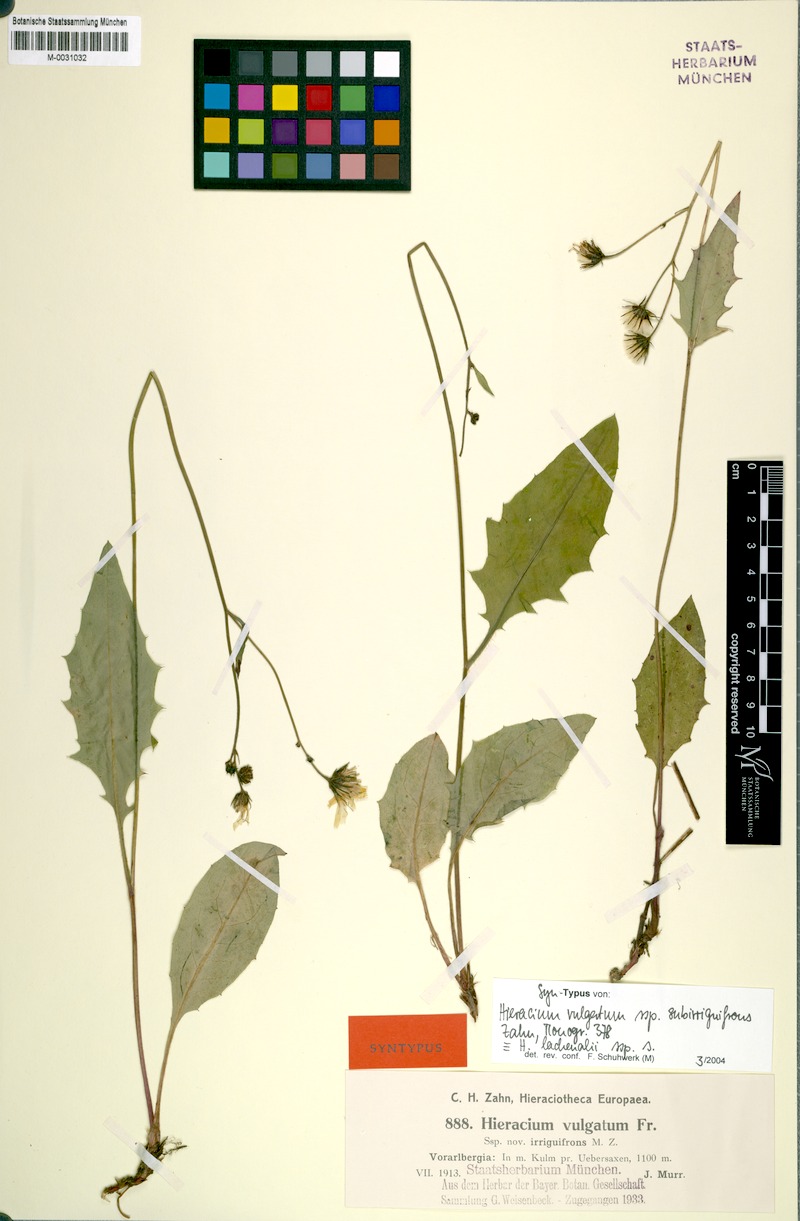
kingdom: Plantae
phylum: Tracheophyta
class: Magnoliopsida
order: Asterales
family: Asteraceae
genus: Hieracium
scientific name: Hieracium lachenalii
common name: Common hawkweed
